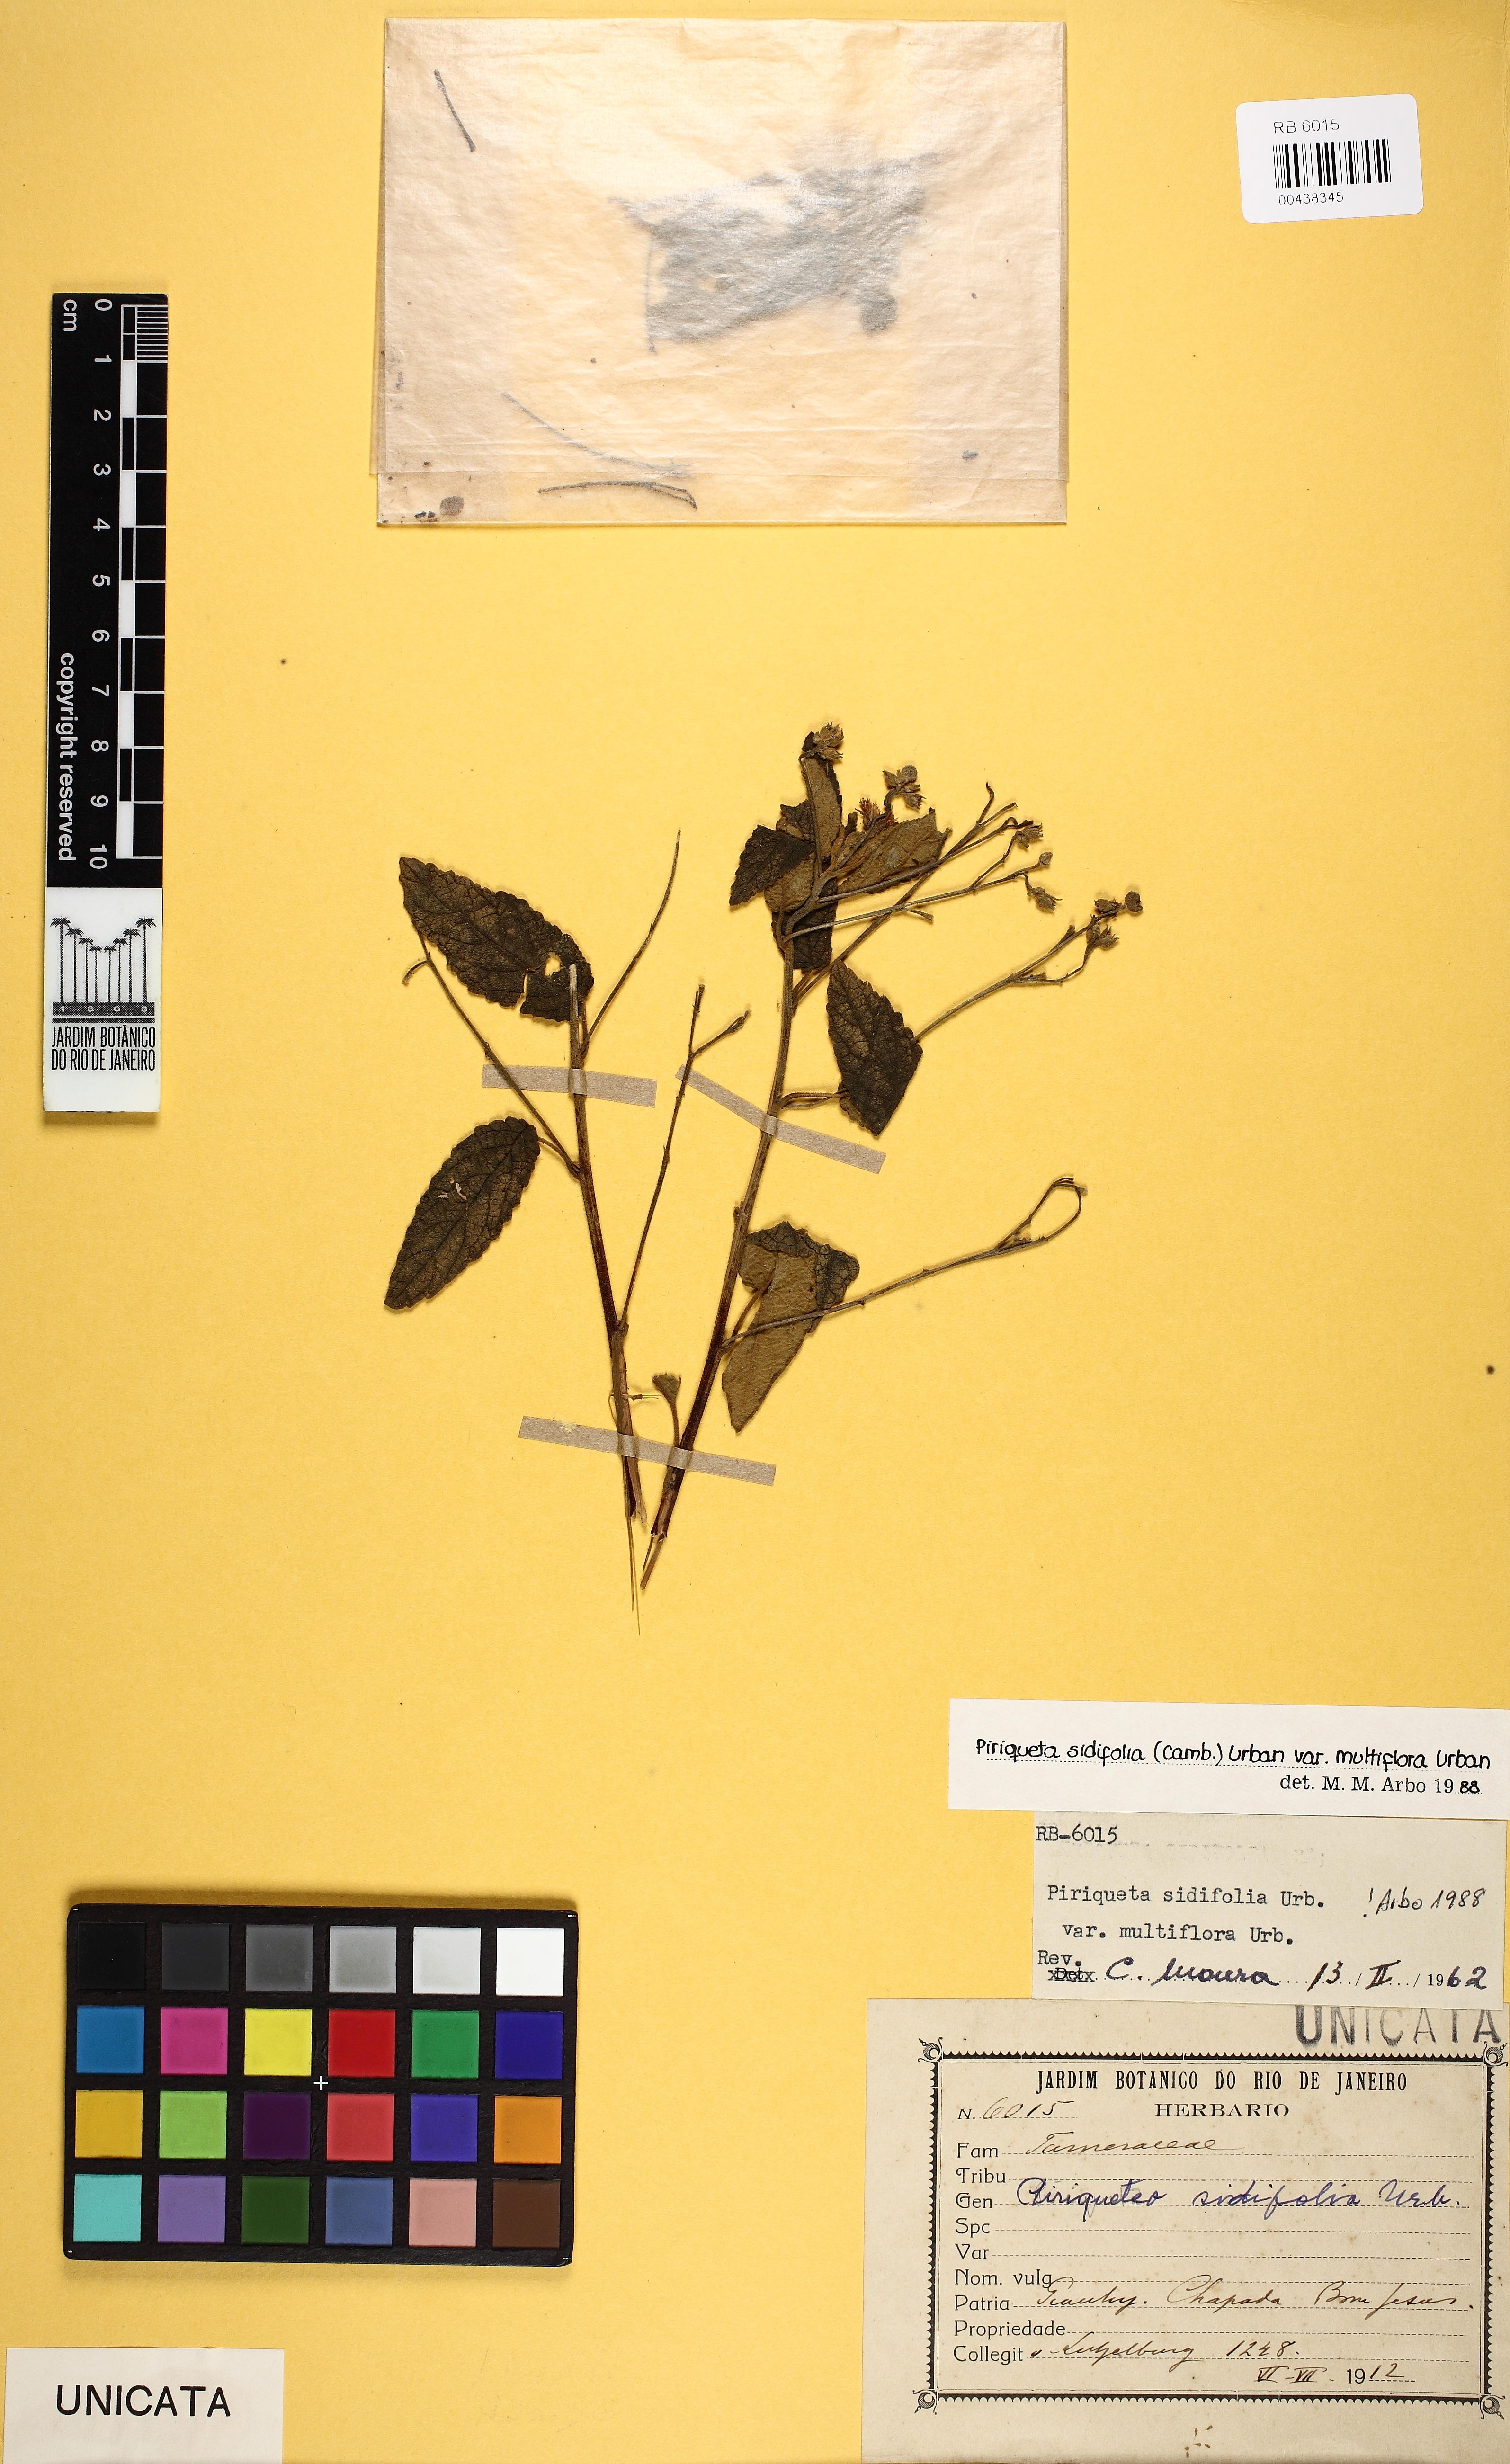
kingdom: Plantae
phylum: Tracheophyta
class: Magnoliopsida
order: Malpighiales
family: Turneraceae
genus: Piriqueta
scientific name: Piriqueta sidifolia
